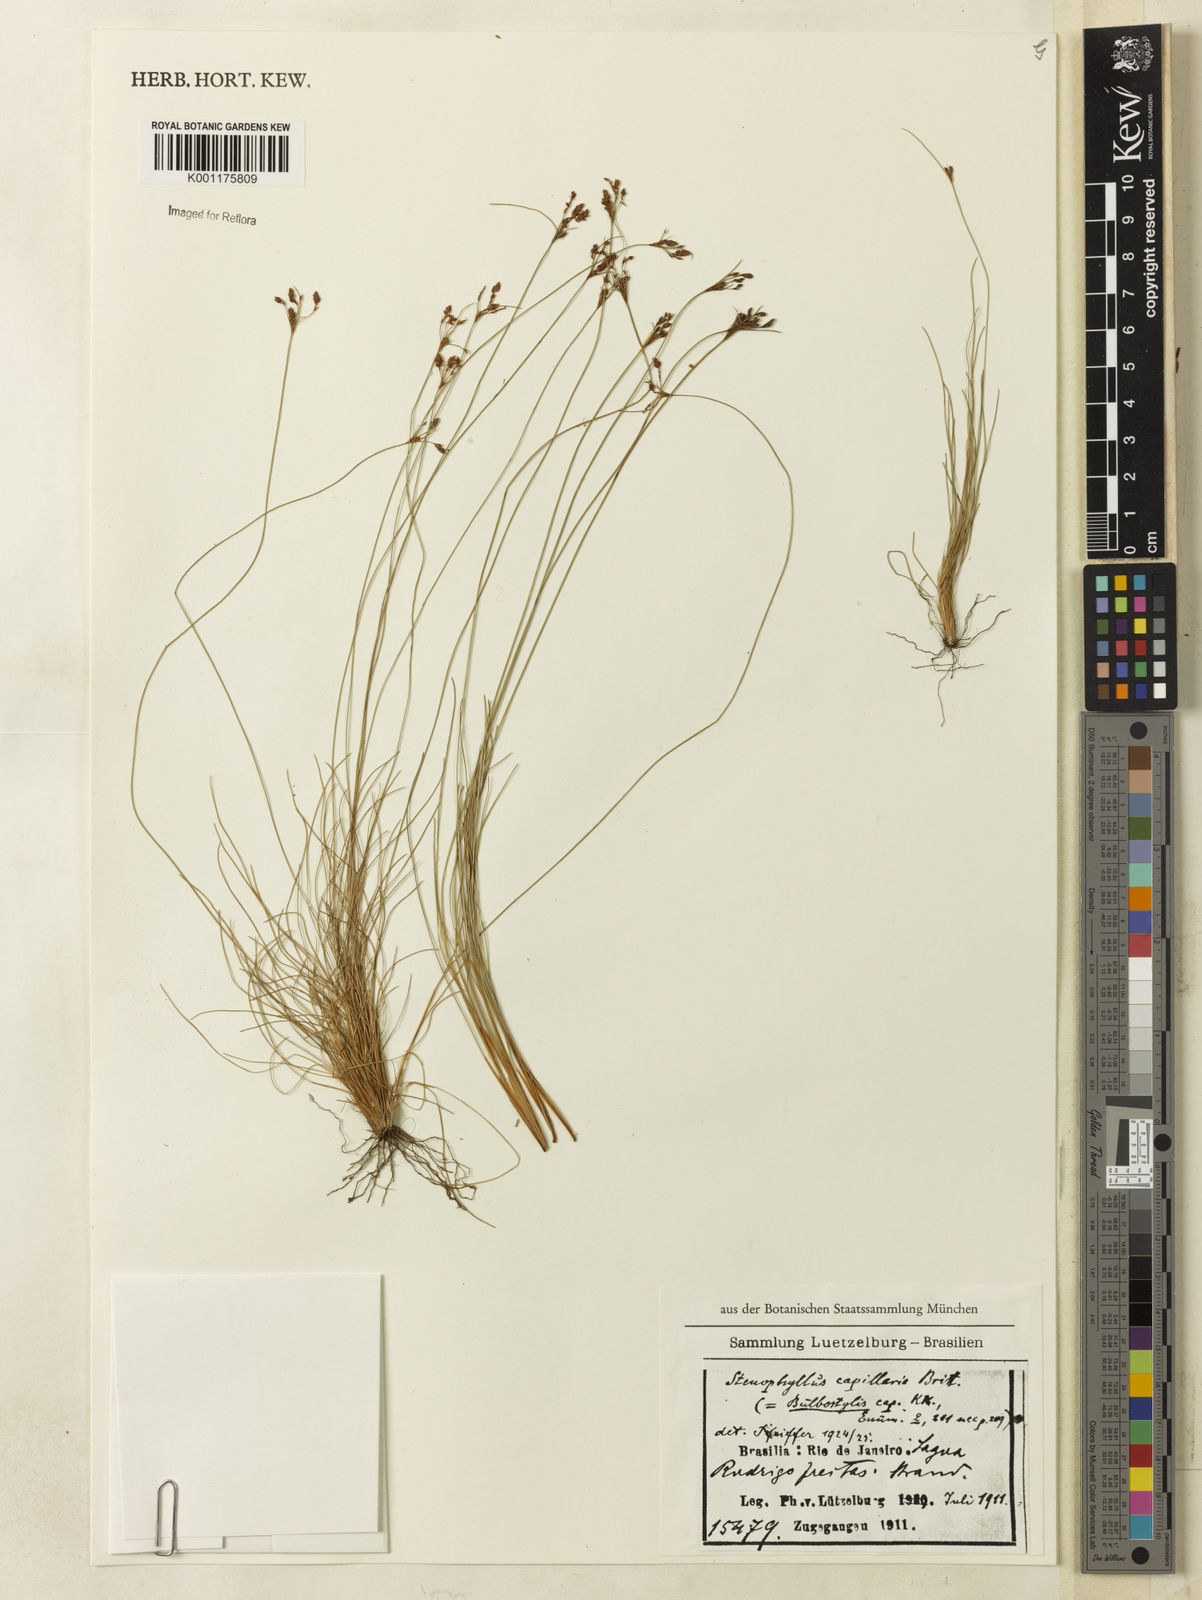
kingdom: Plantae
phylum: Tracheophyta
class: Liliopsida
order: Poales
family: Cyperaceae
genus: Bulbostylis
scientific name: Bulbostylis capillaris
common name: Densetuft hairsedge
